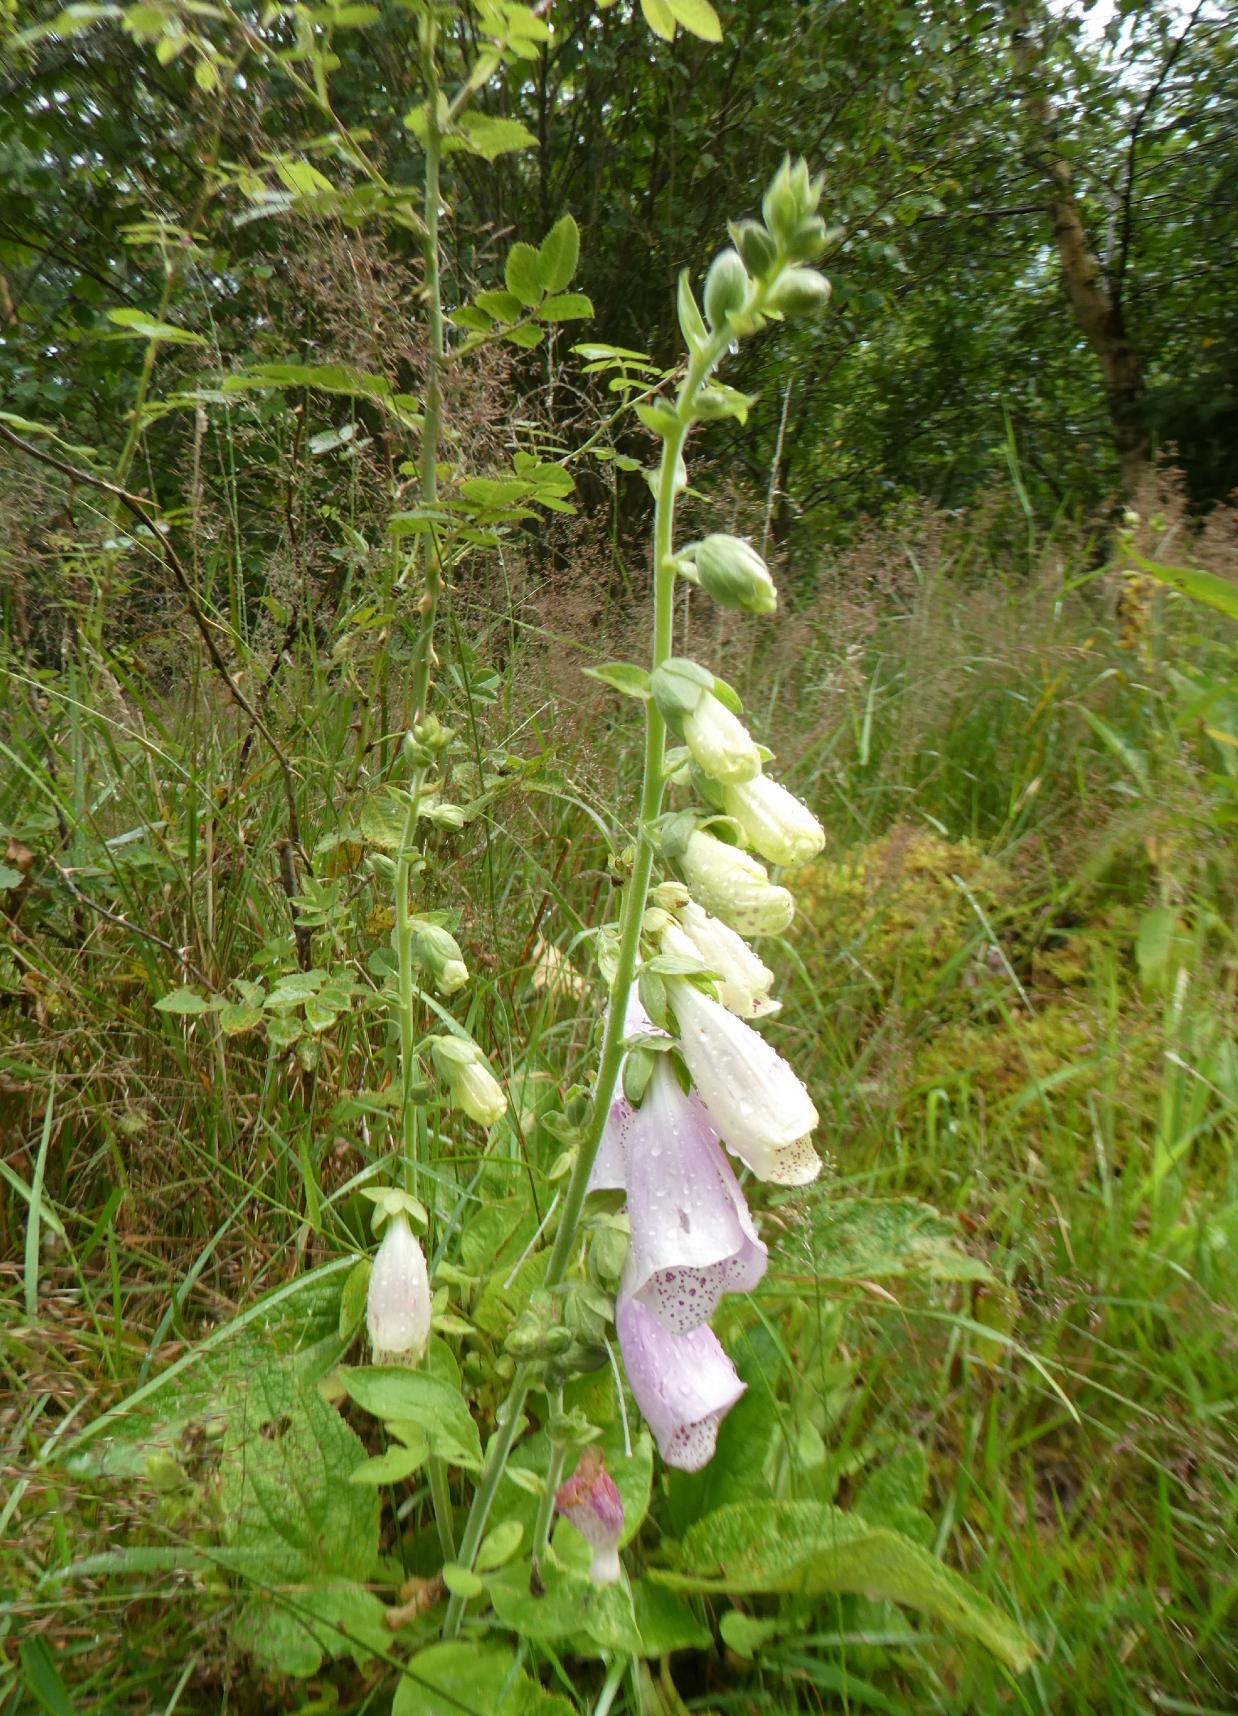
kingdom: Plantae
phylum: Tracheophyta
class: Magnoliopsida
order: Lamiales
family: Plantaginaceae
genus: Digitalis
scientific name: Digitalis purpurea
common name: Almindelig fingerbøl
